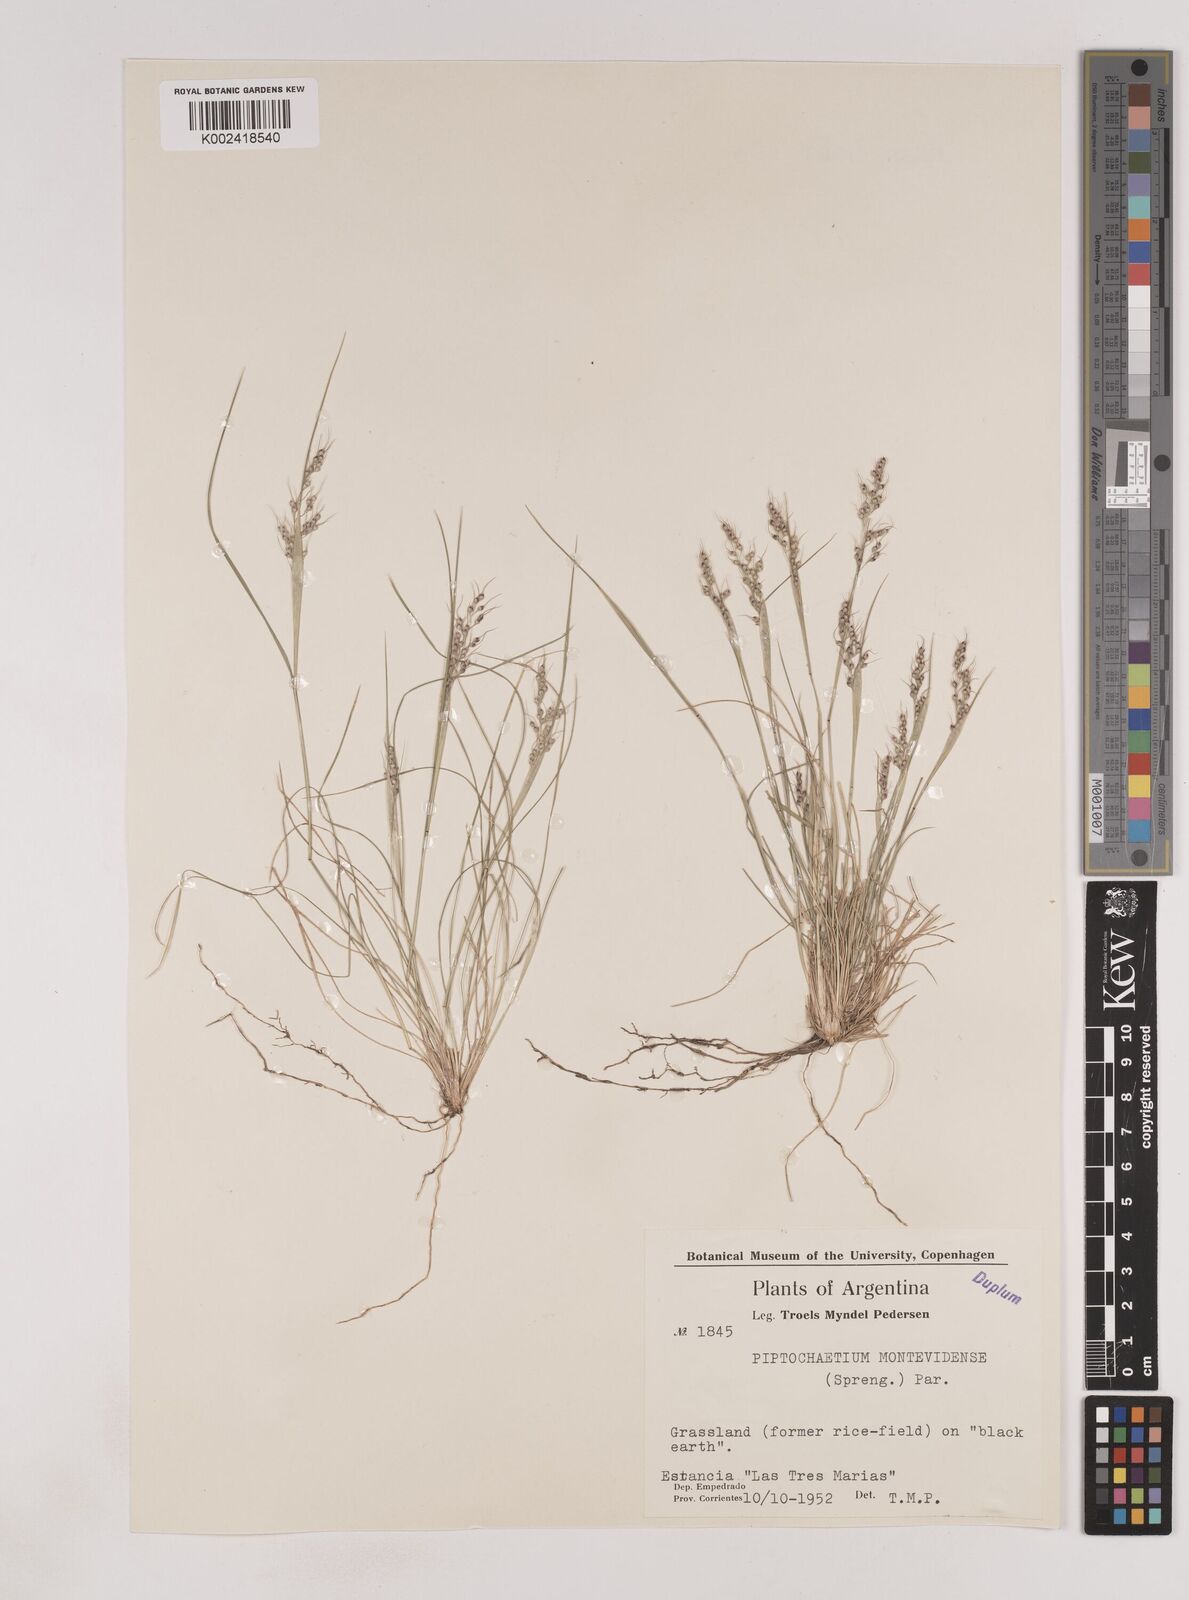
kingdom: Plantae
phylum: Tracheophyta
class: Liliopsida
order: Poales
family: Poaceae
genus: Piptochaetium
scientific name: Piptochaetium montevidense
